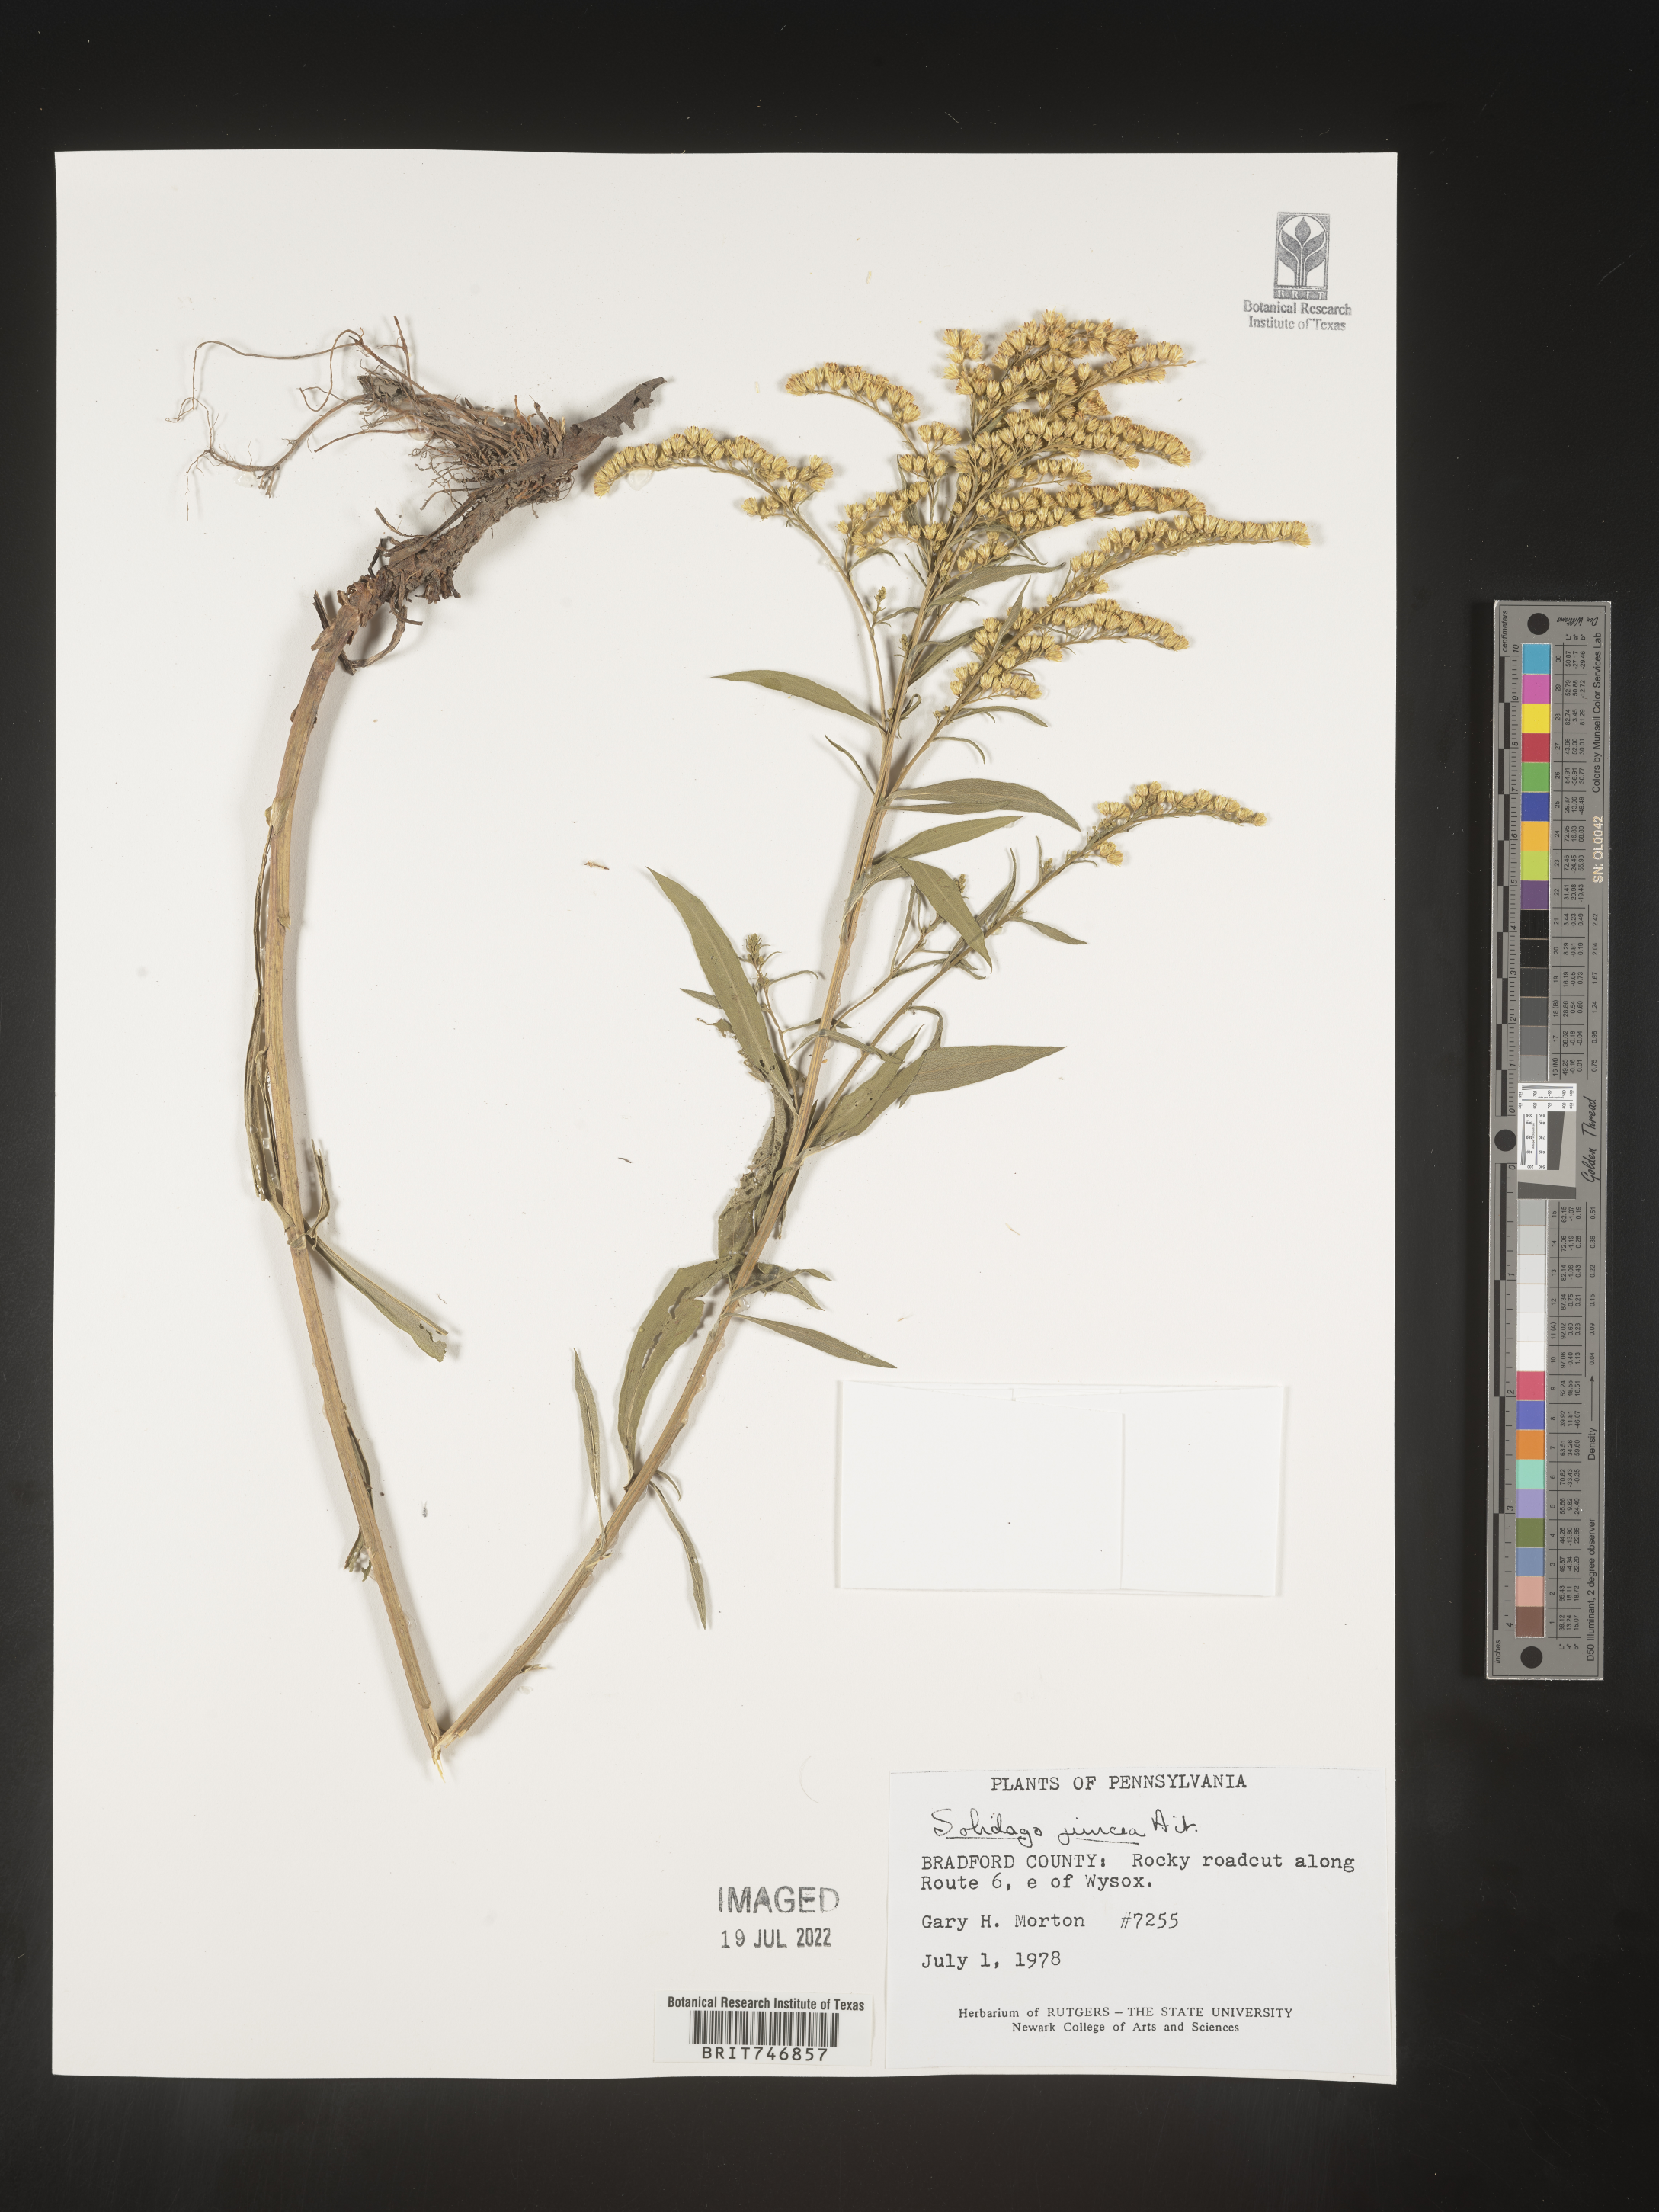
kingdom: Plantae
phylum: Tracheophyta
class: Magnoliopsida
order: Asterales
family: Asteraceae
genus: Solidago
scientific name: Solidago juncea
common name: Early goldenrod
